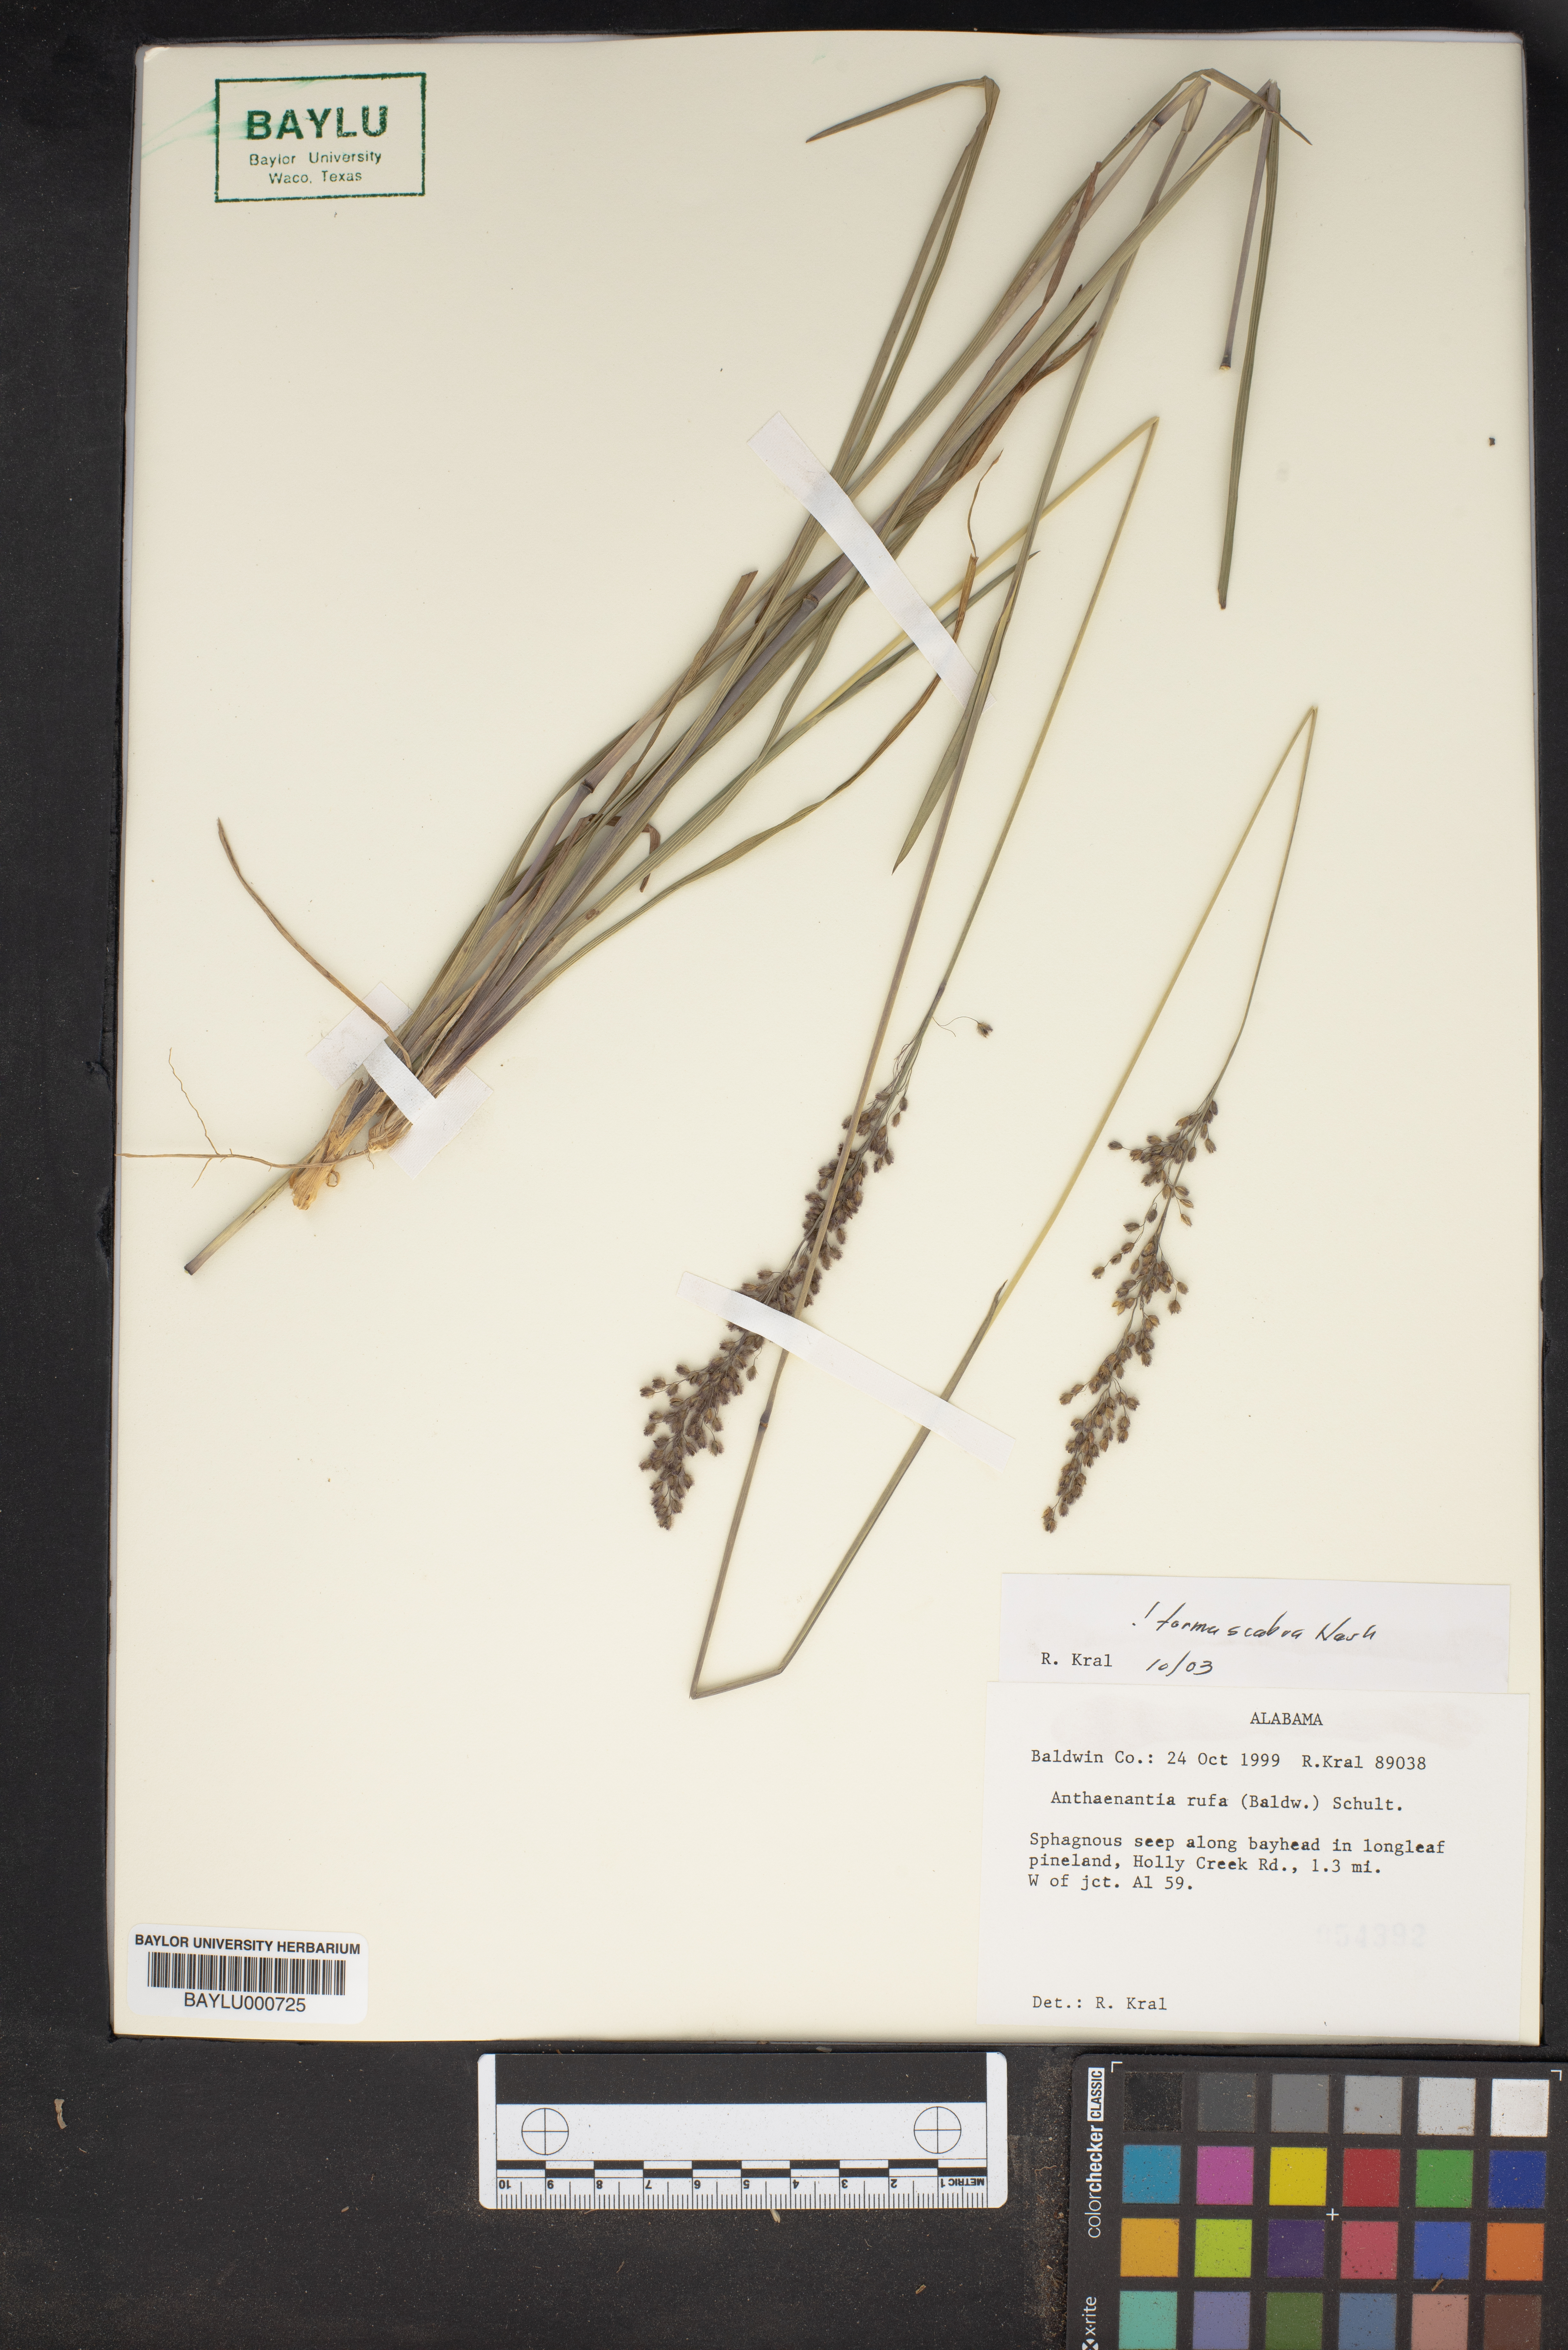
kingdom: Plantae
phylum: Tracheophyta
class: Liliopsida
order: Poales
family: Poaceae
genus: Anthenantia
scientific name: Anthenantia rufa
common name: Purple silkyscale
